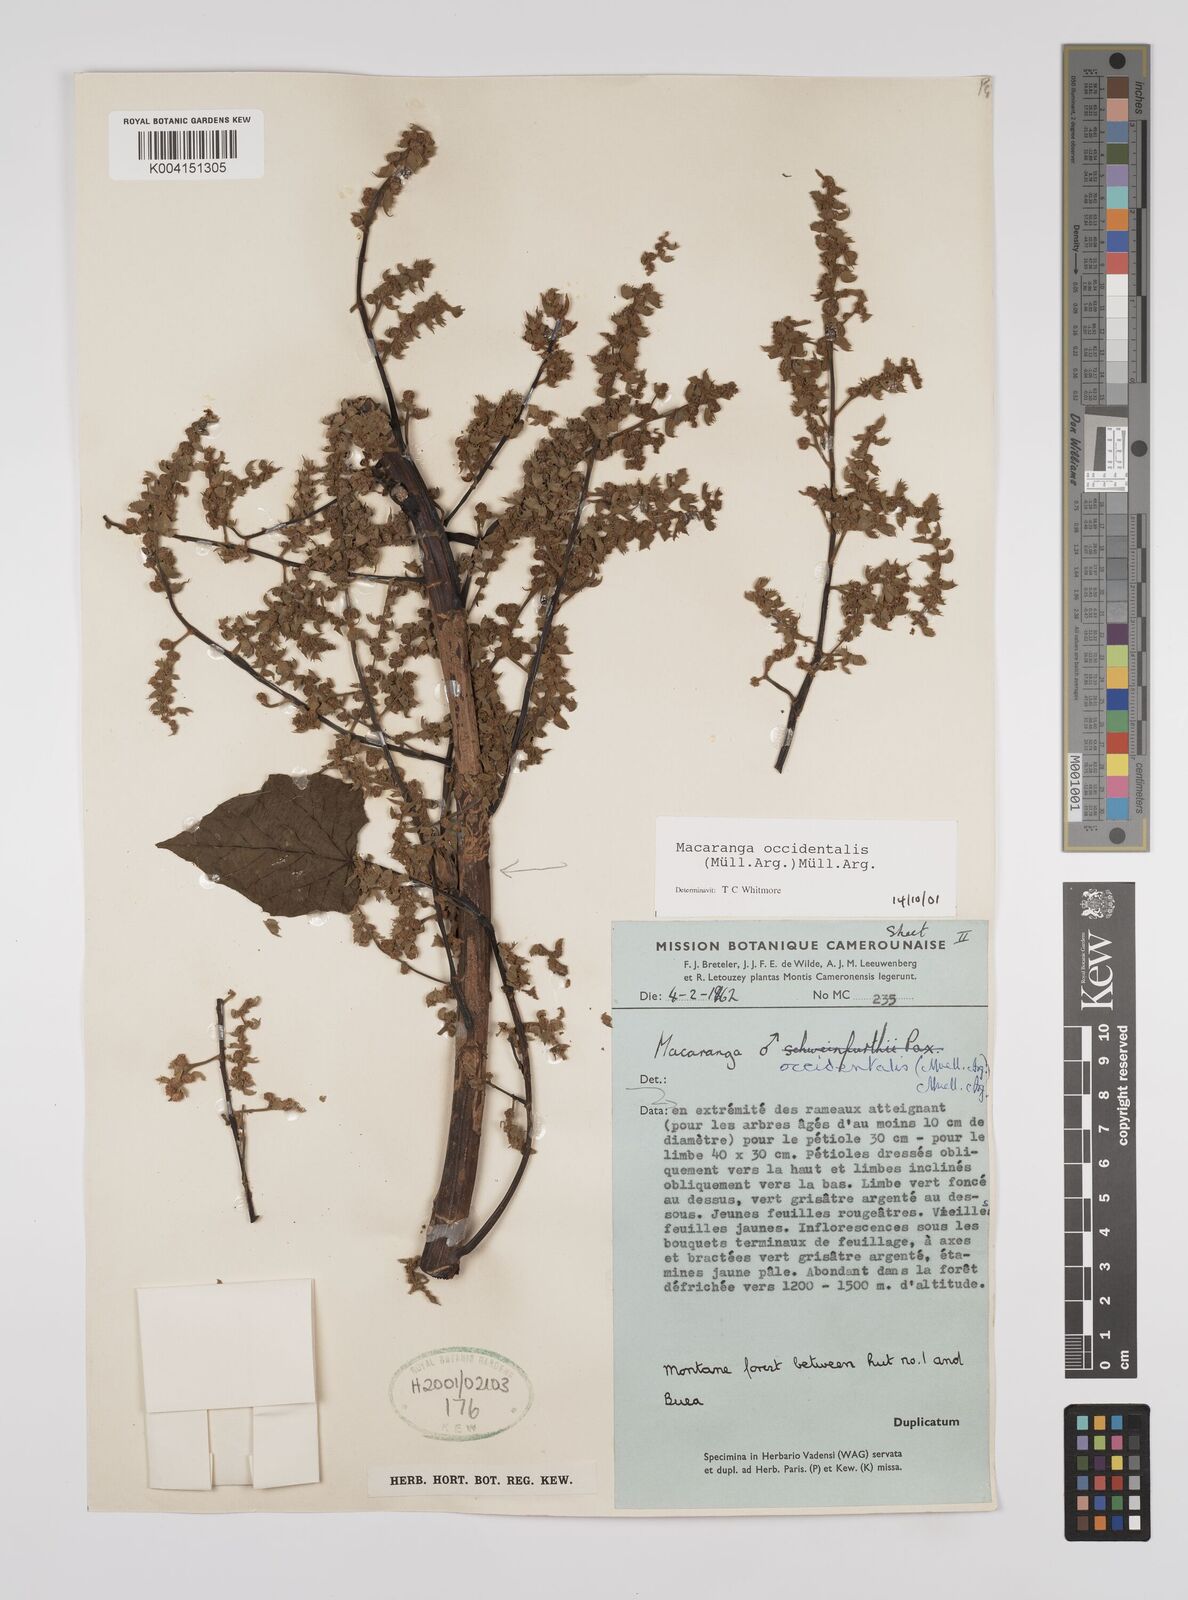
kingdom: Plantae
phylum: Tracheophyta
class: Magnoliopsida
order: Malpighiales
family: Euphorbiaceae
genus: Macaranga
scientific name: Macaranga occidentalis
